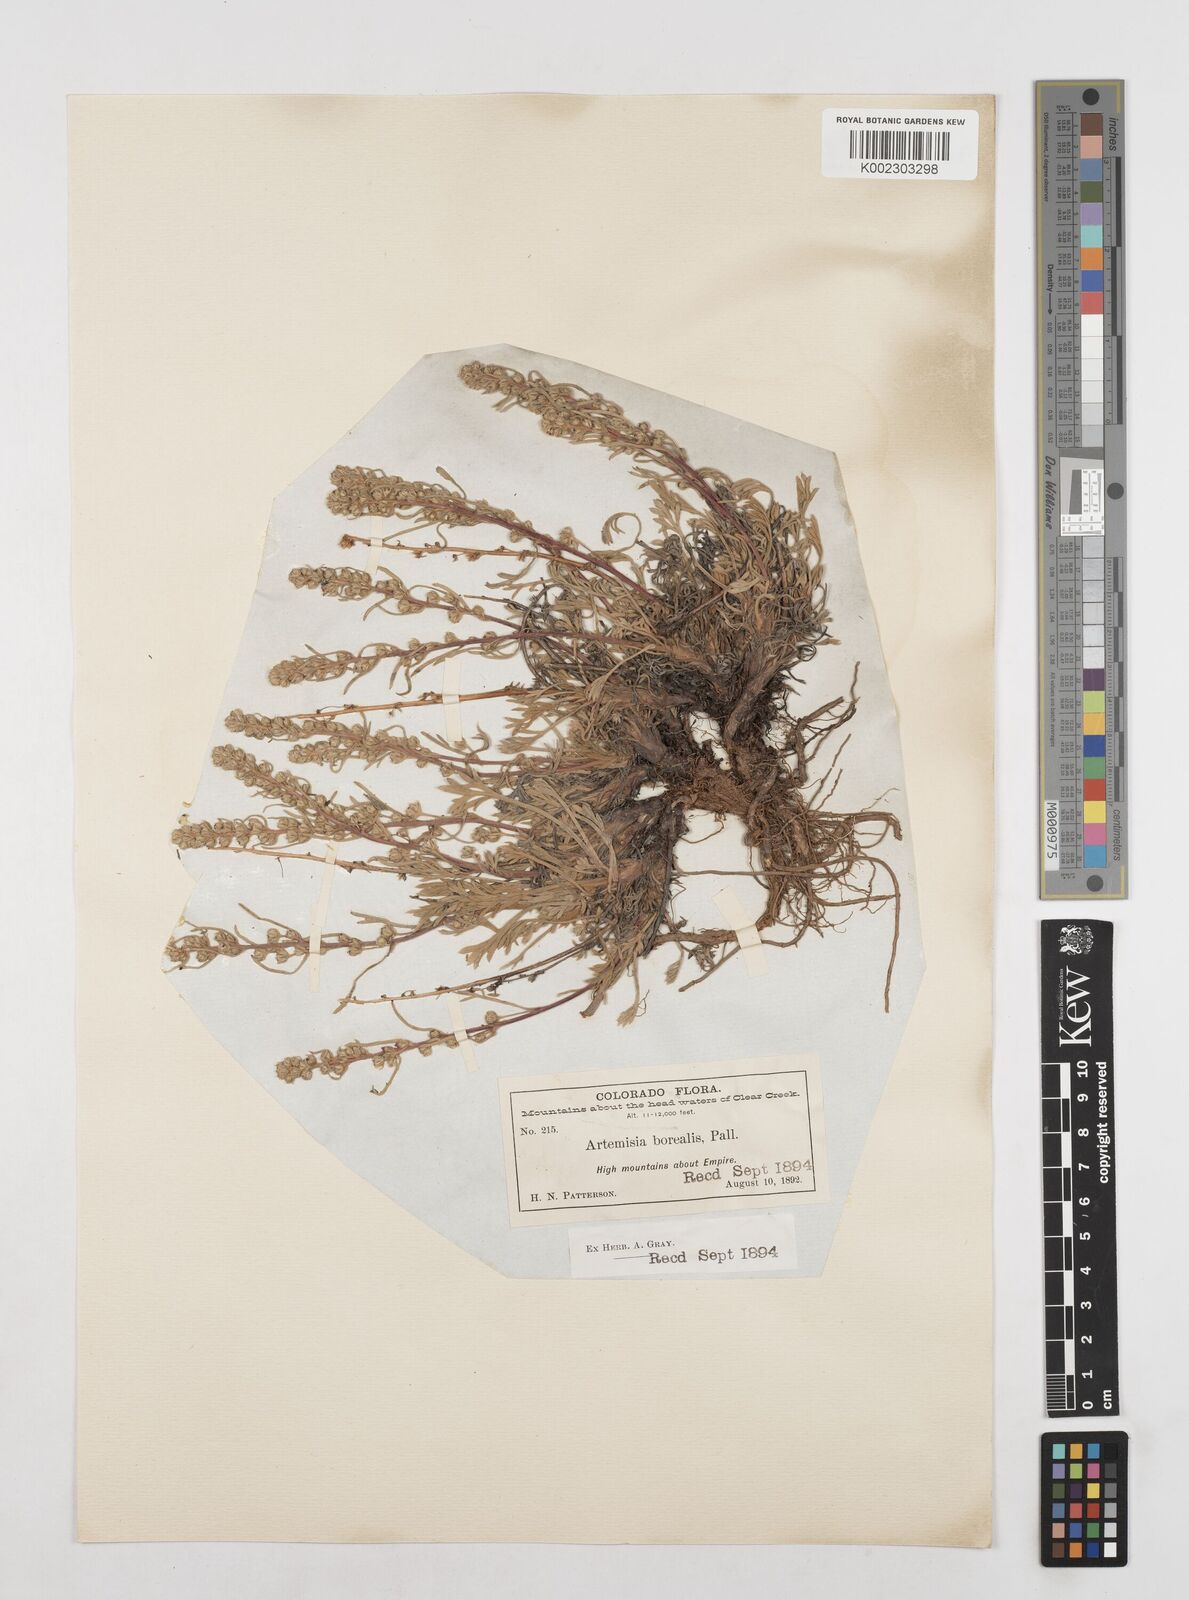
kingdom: Plantae
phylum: Tracheophyta
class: Magnoliopsida
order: Asterales
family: Asteraceae
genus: Artemisia
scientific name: Artemisia borealis
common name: Boreal sage
